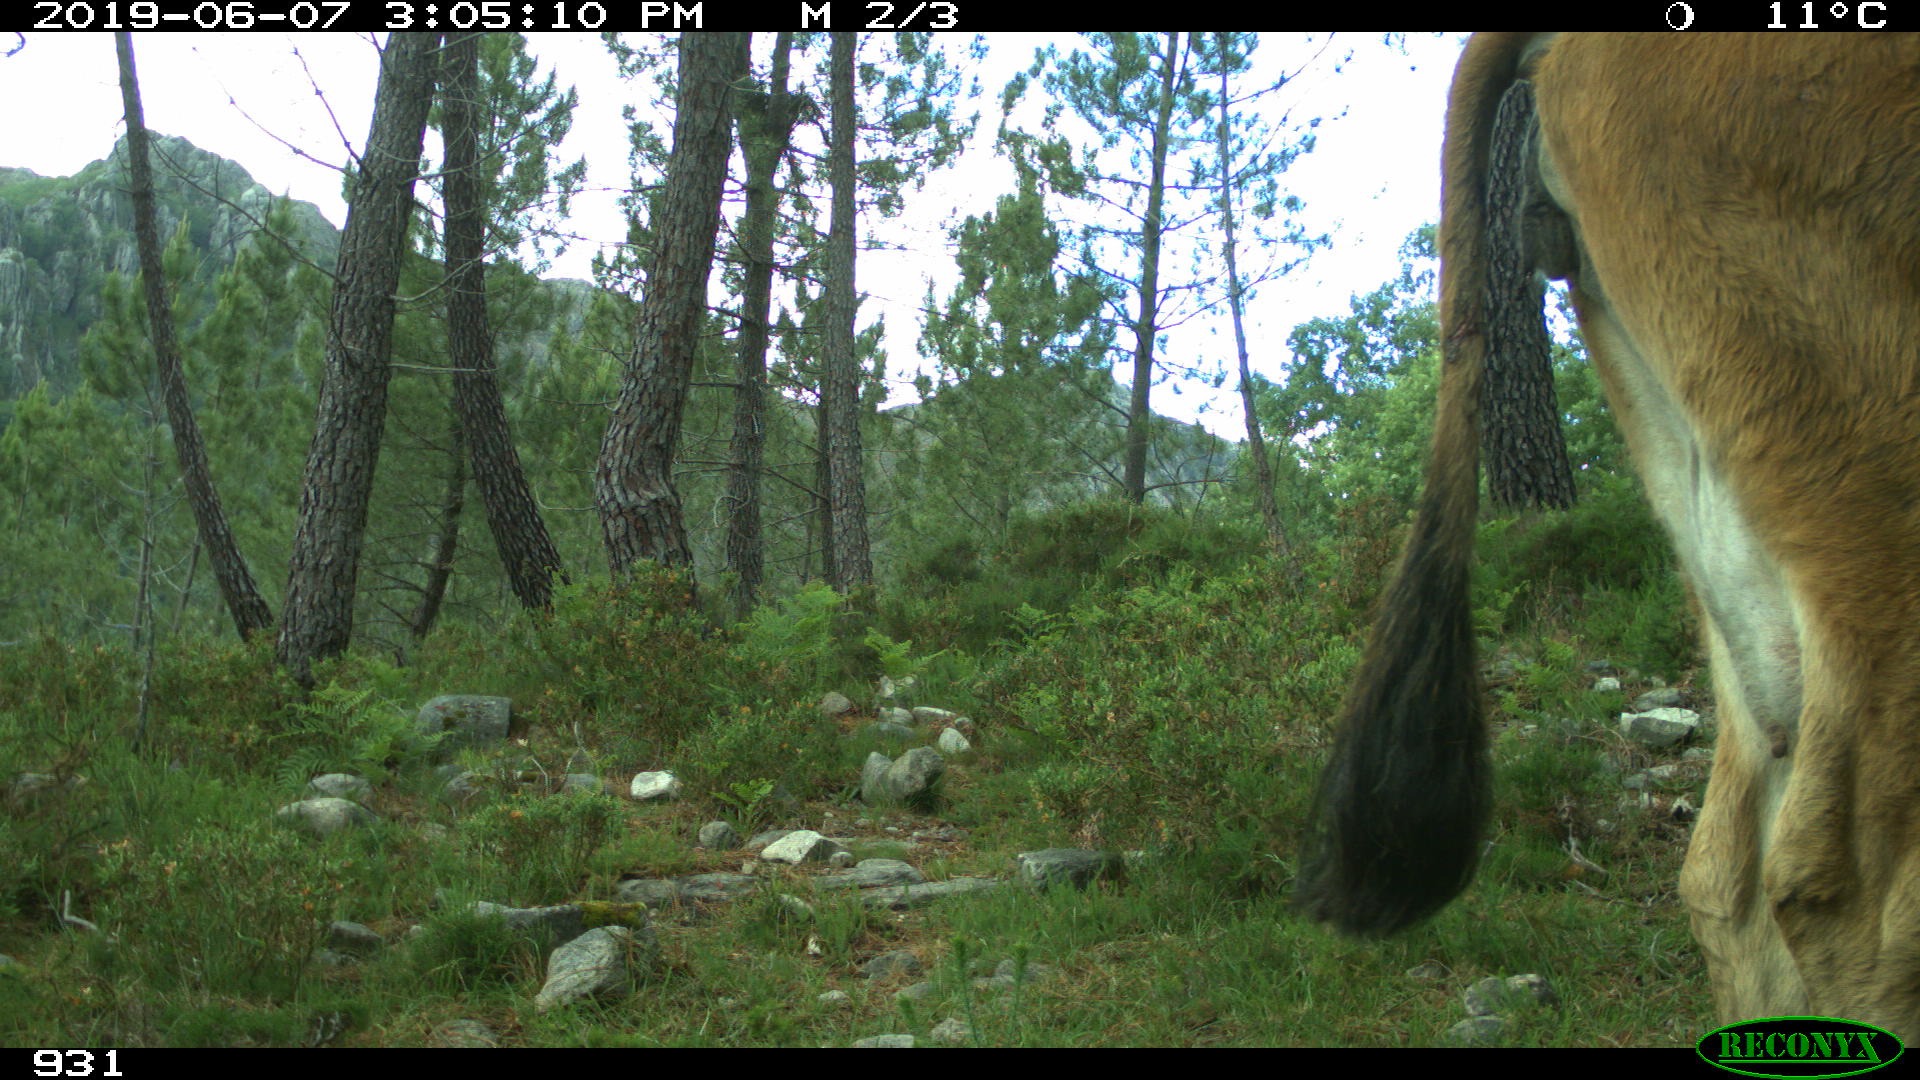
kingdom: Animalia
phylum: Chordata
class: Mammalia
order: Artiodactyla
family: Bovidae
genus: Bos
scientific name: Bos taurus
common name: Domesticated cattle
